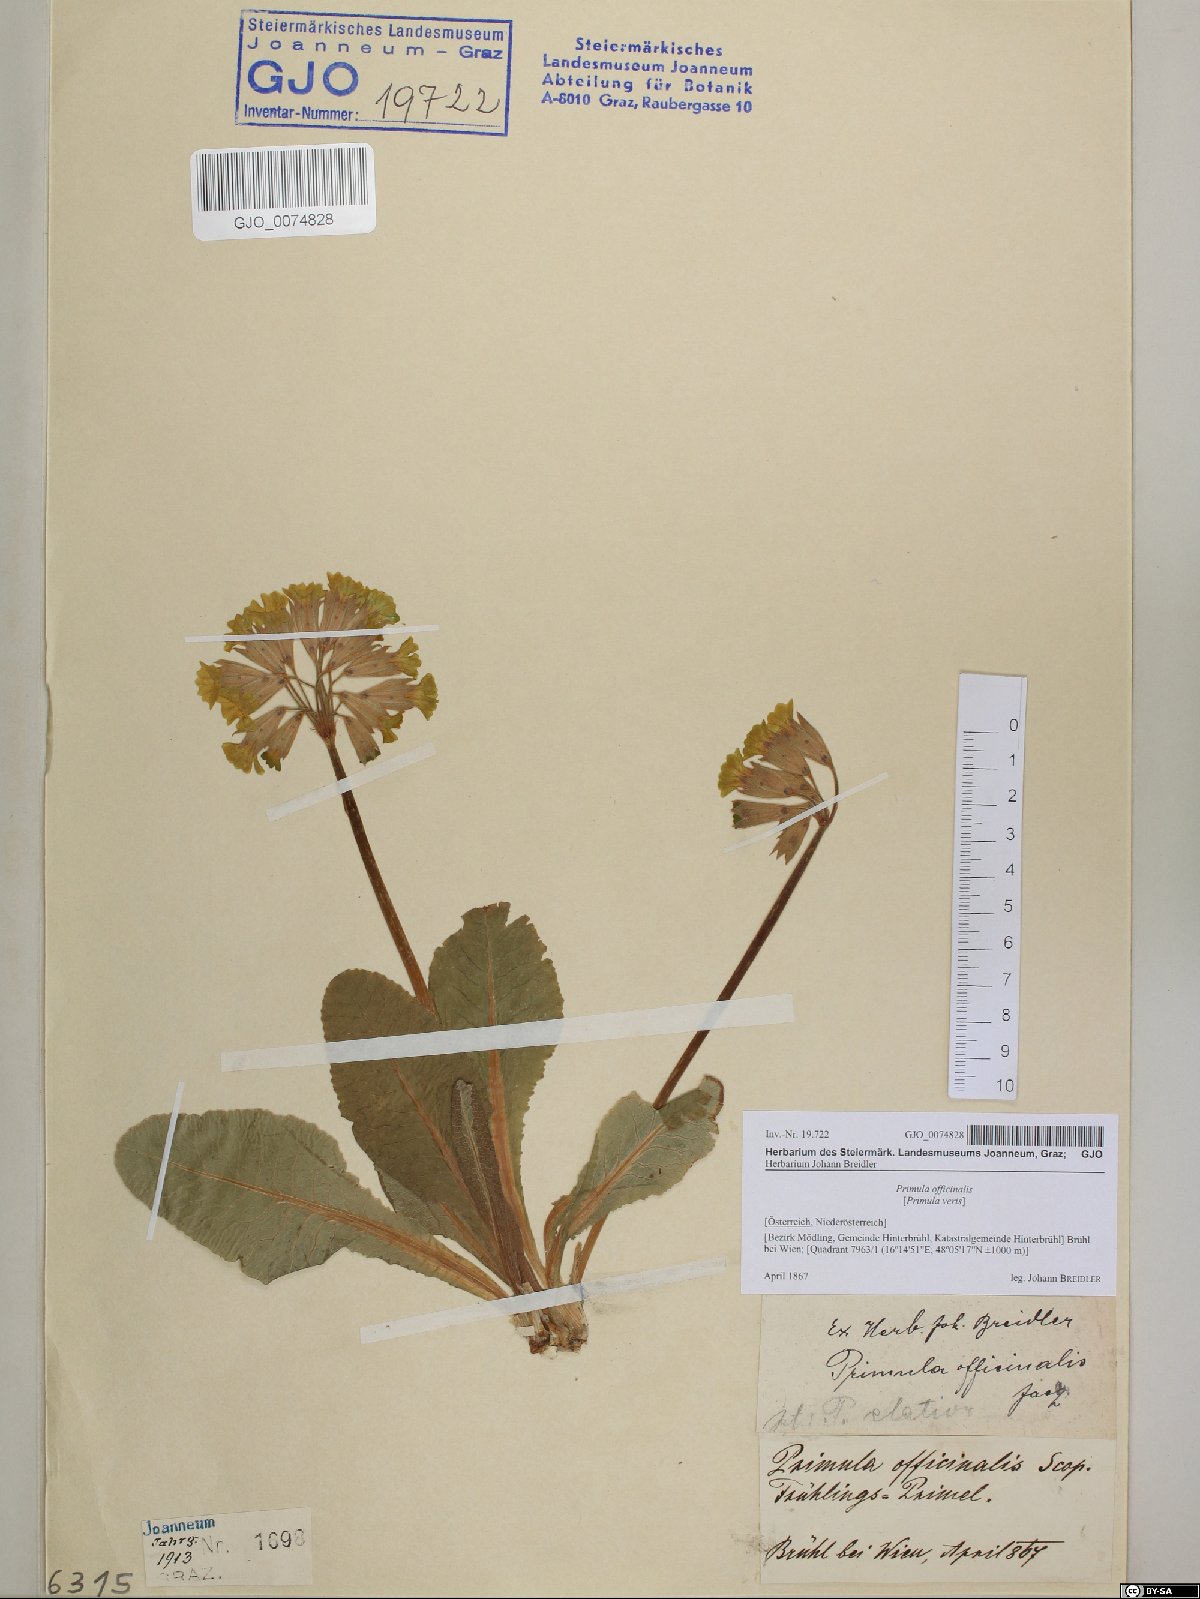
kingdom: Plantae
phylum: Tracheophyta
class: Magnoliopsida
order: Ericales
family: Primulaceae
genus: Primula
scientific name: Primula veris
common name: Cowslip
